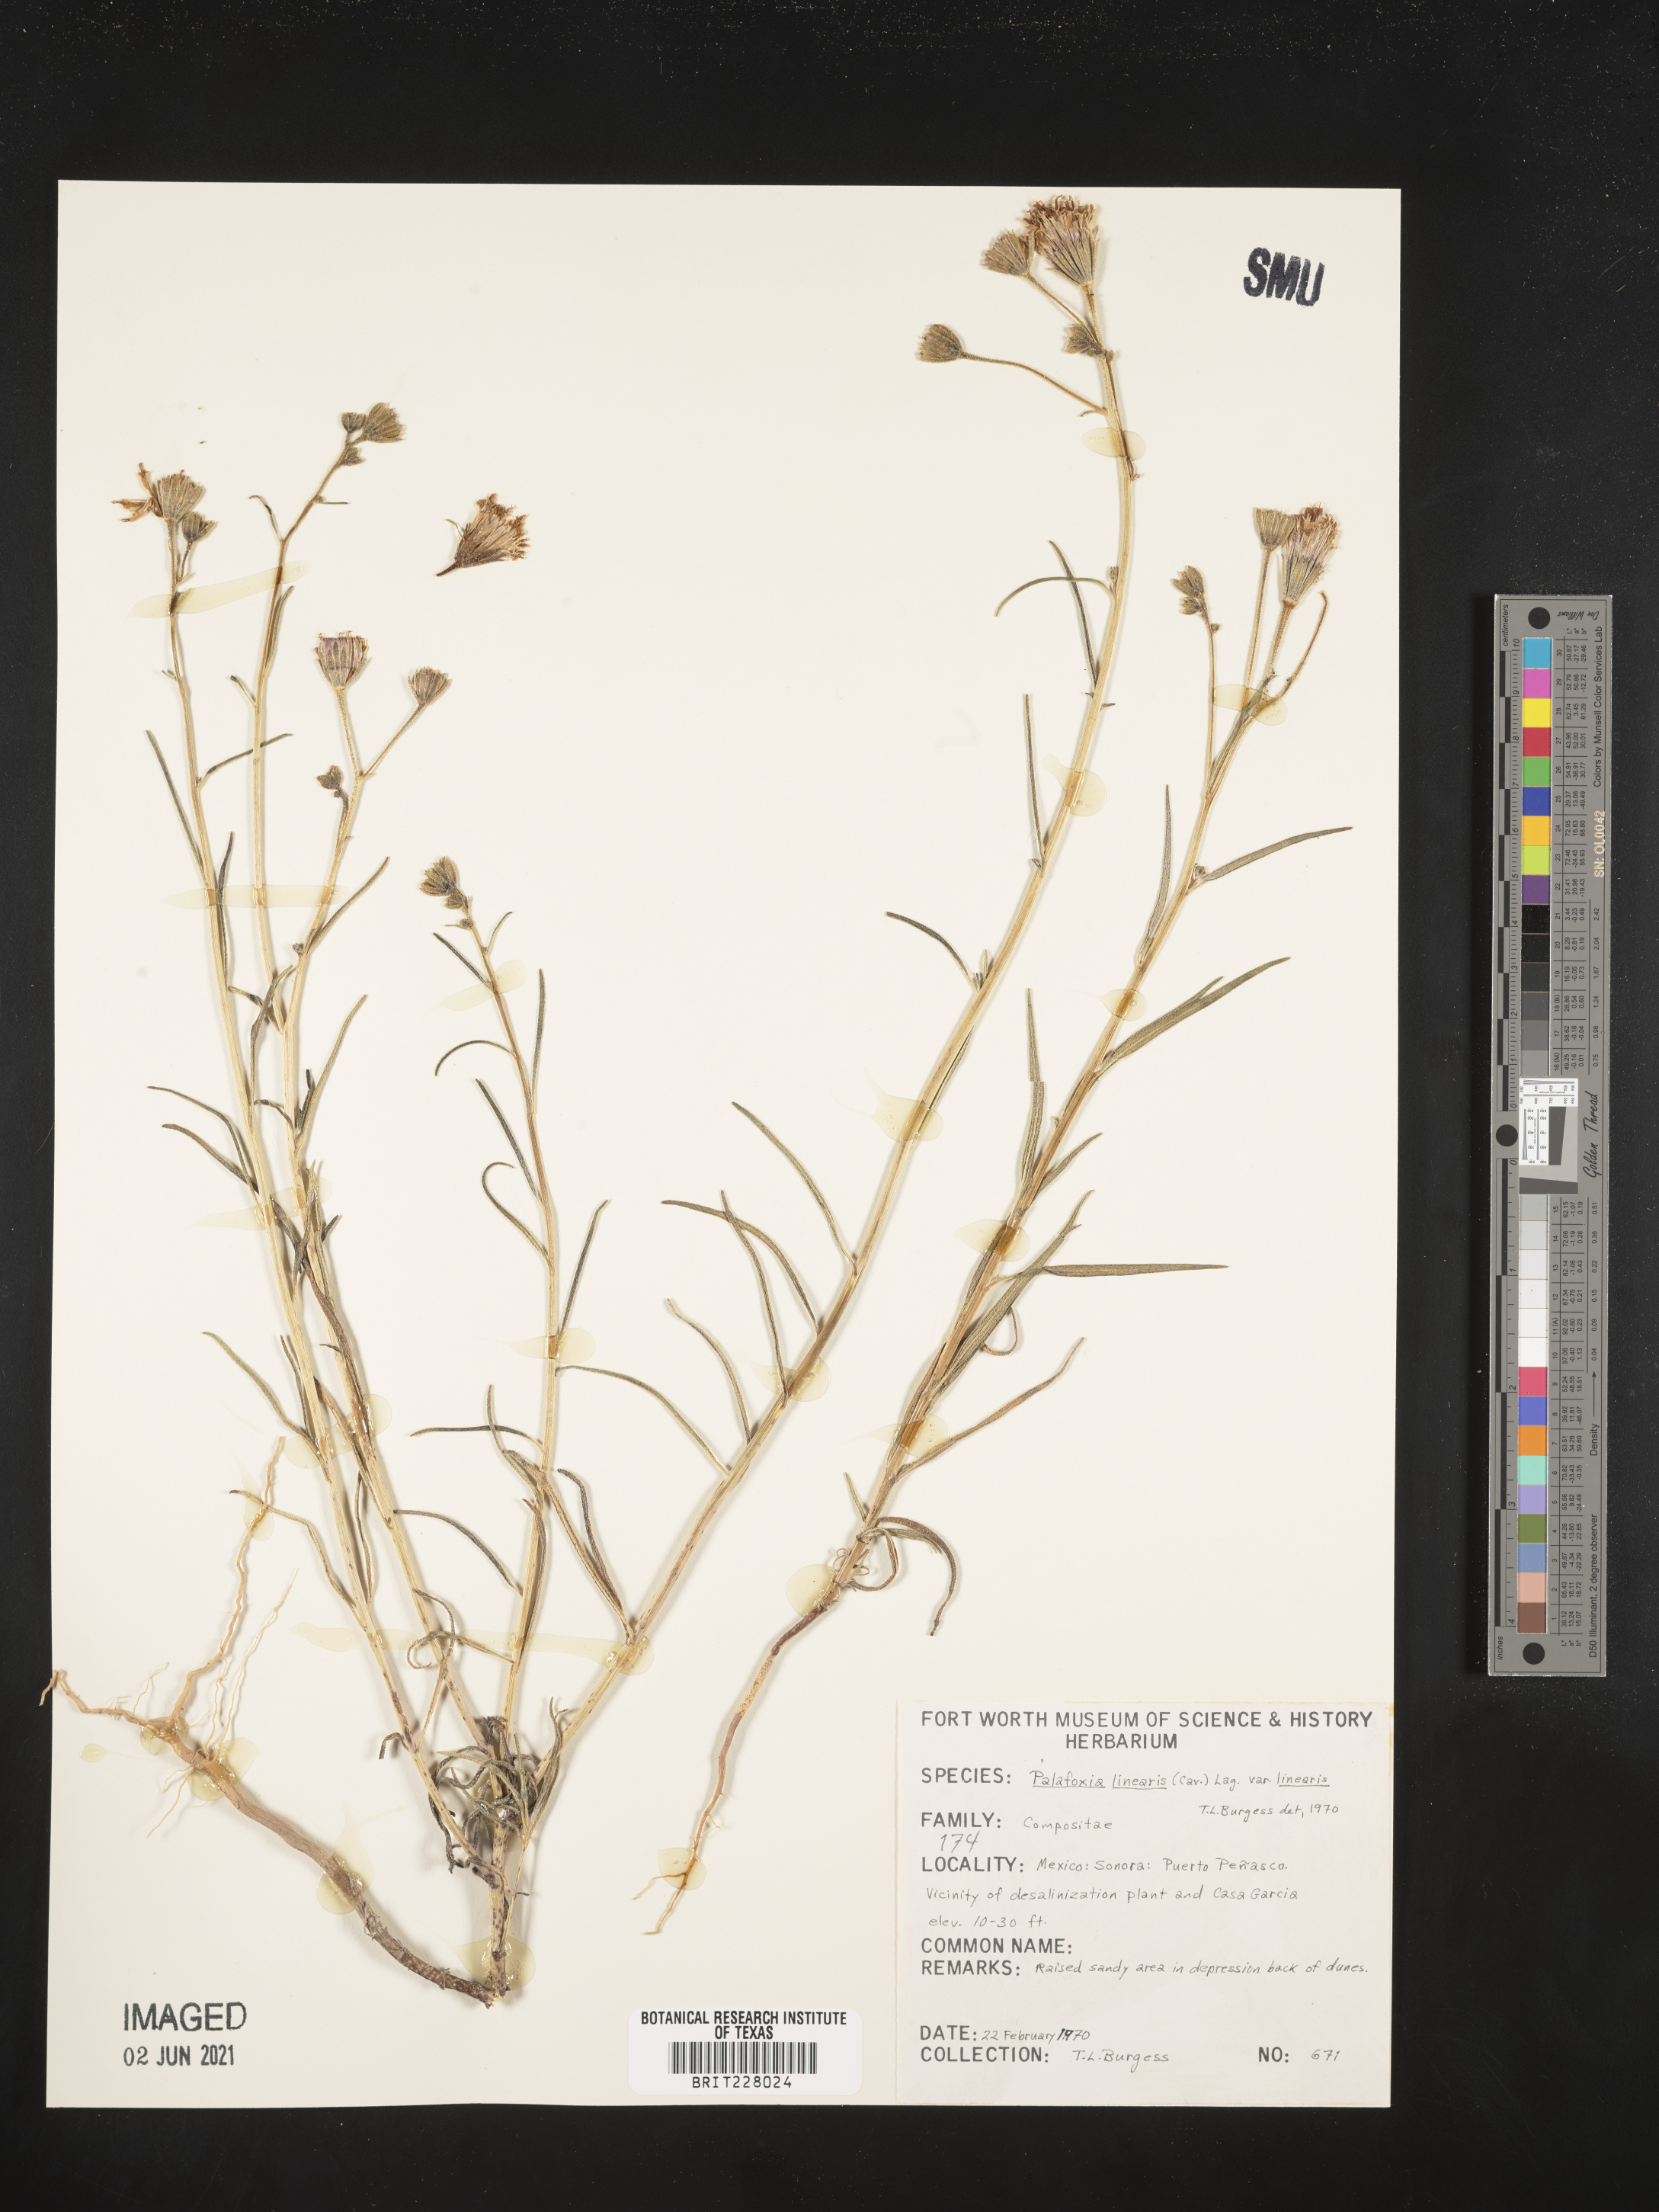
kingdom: Plantae
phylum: Tracheophyta
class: Magnoliopsida
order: Asterales
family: Asteraceae
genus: Palafoxia
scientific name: Palafoxia linearis
